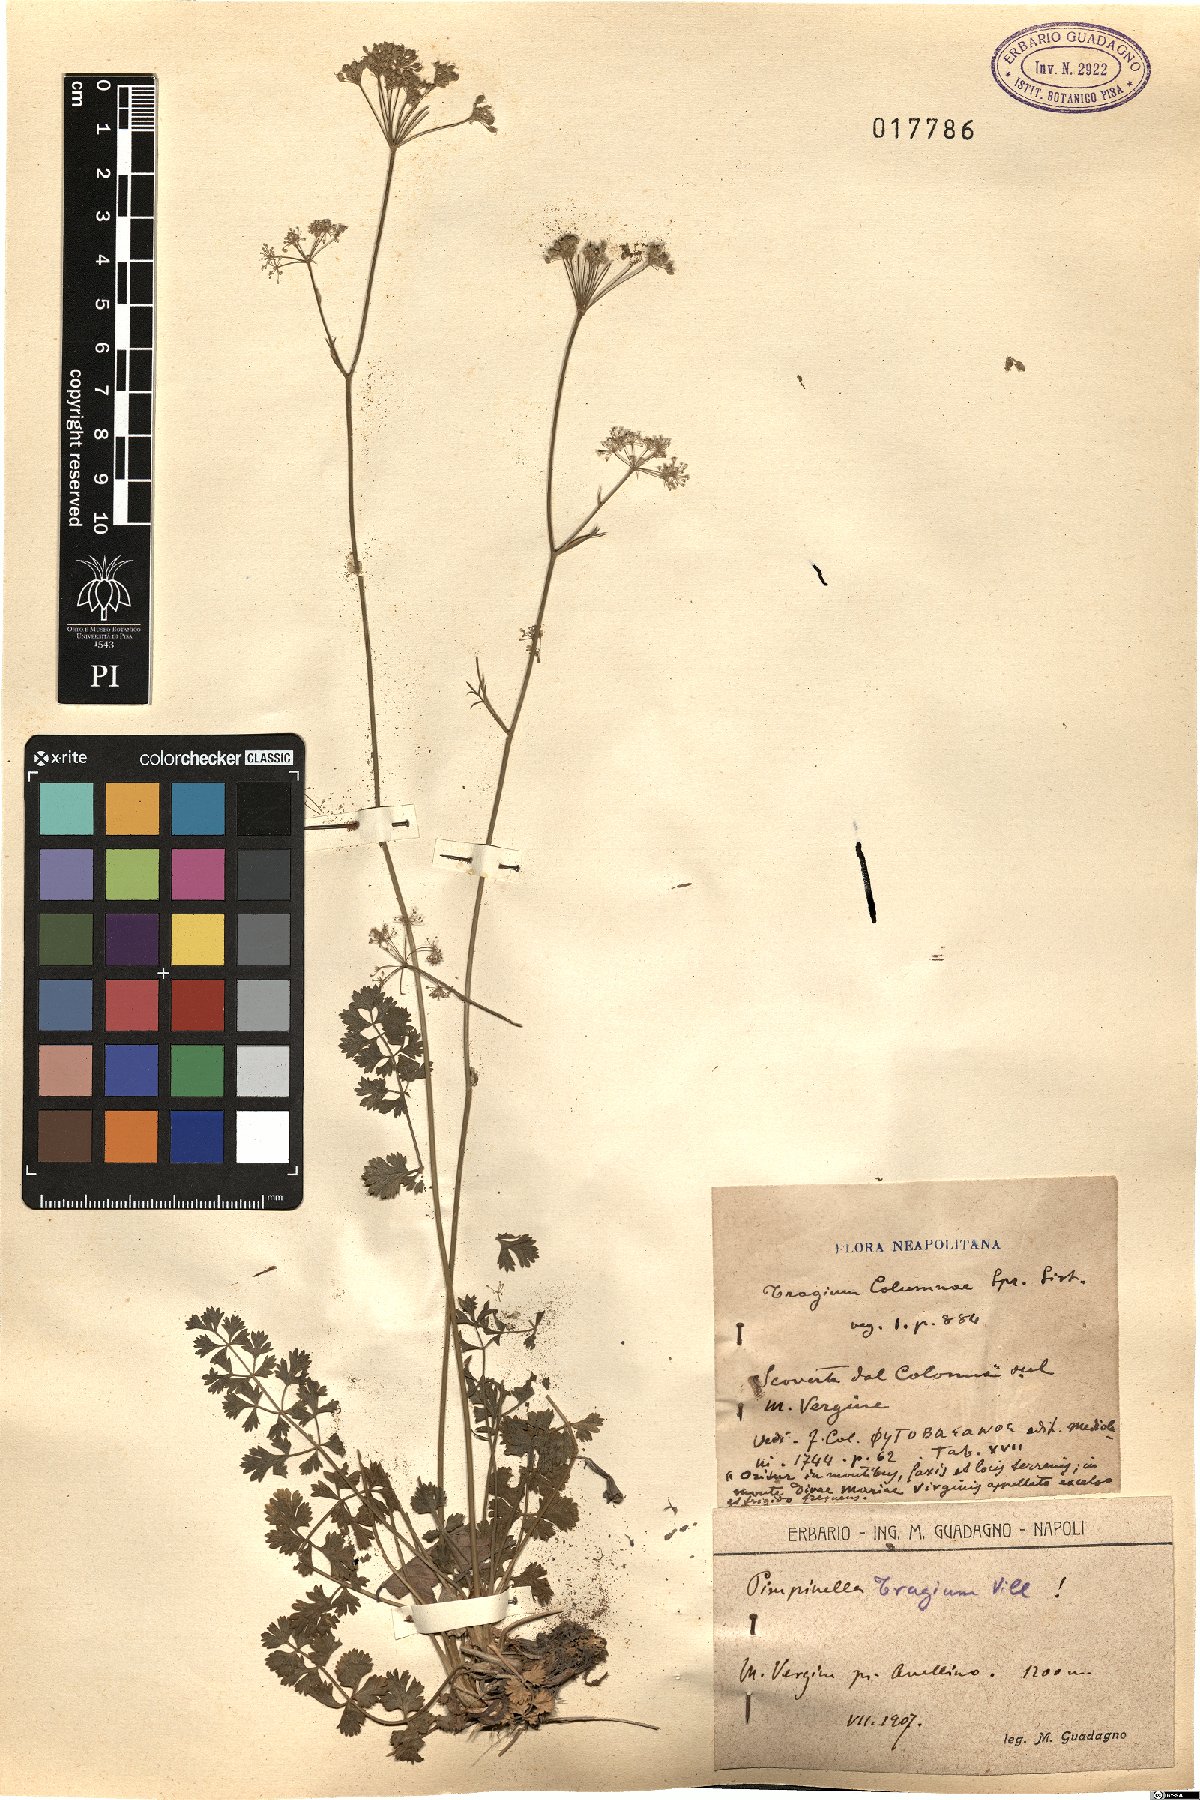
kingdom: Plantae
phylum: Tracheophyta
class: Magnoliopsida
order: Apiales
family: Apiaceae
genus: Pimpinella
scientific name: Pimpinella tragium
